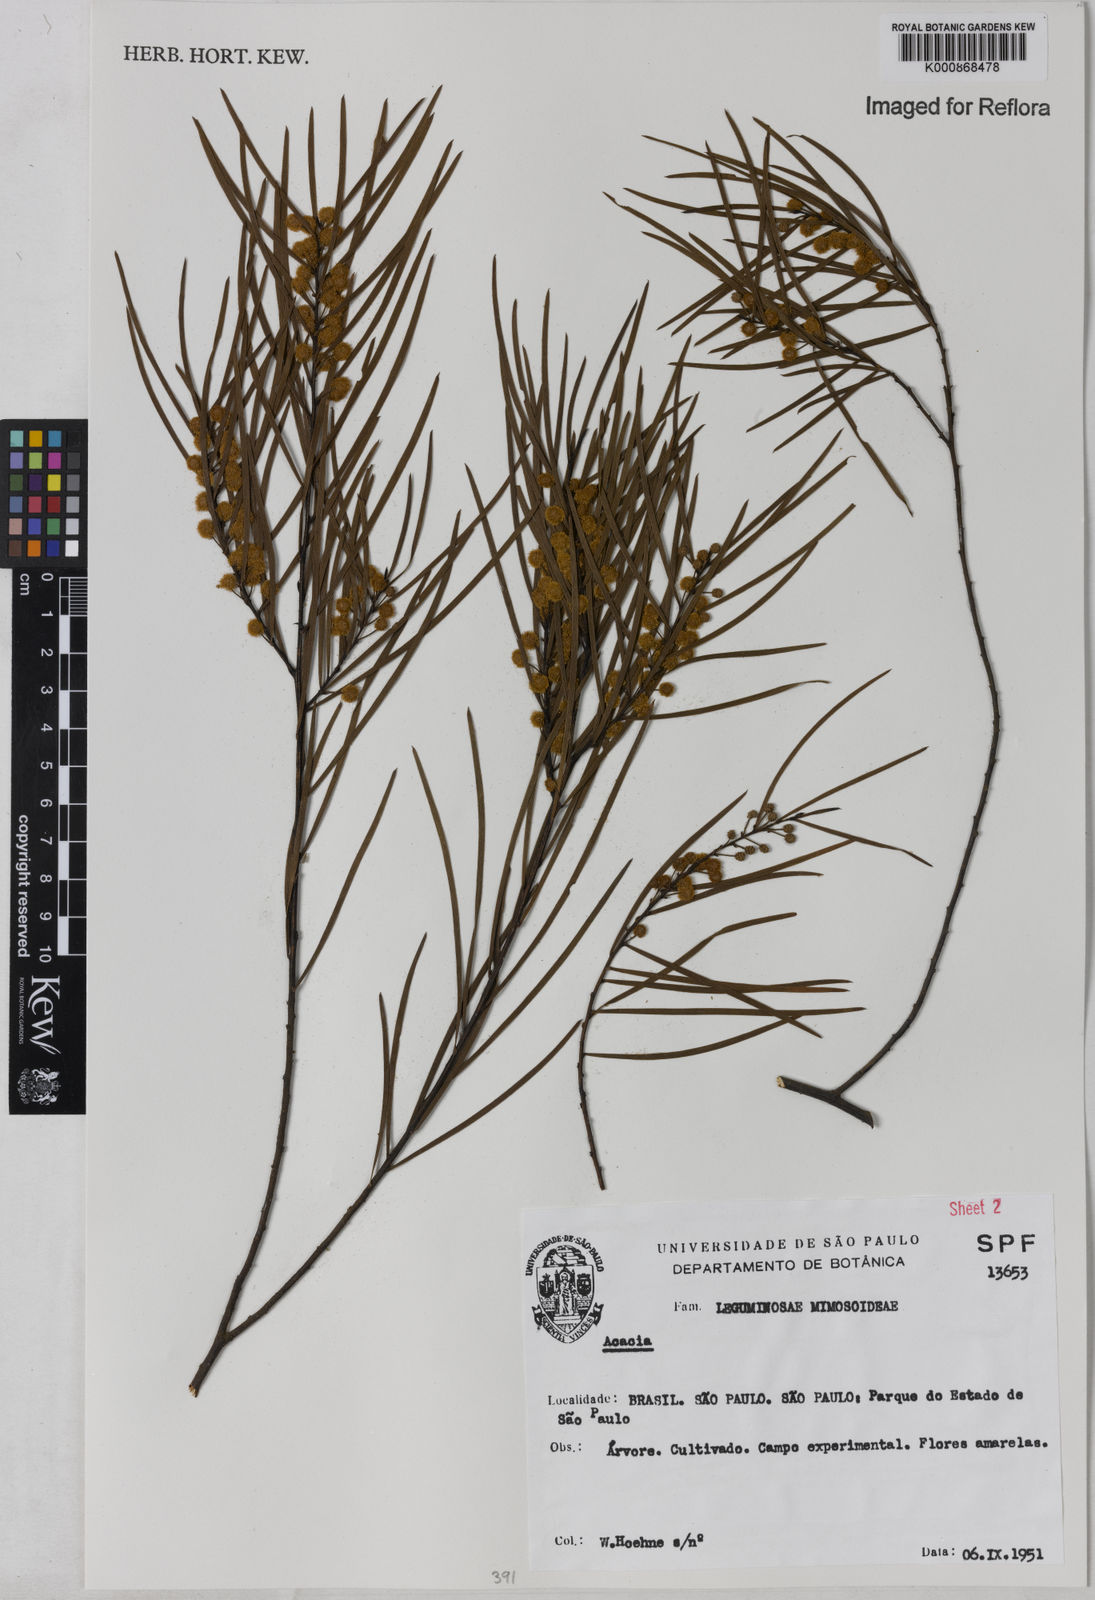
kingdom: Plantae
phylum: Tracheophyta
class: Magnoliopsida
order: Fabales
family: Fabaceae
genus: Acacia
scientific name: Acacia
